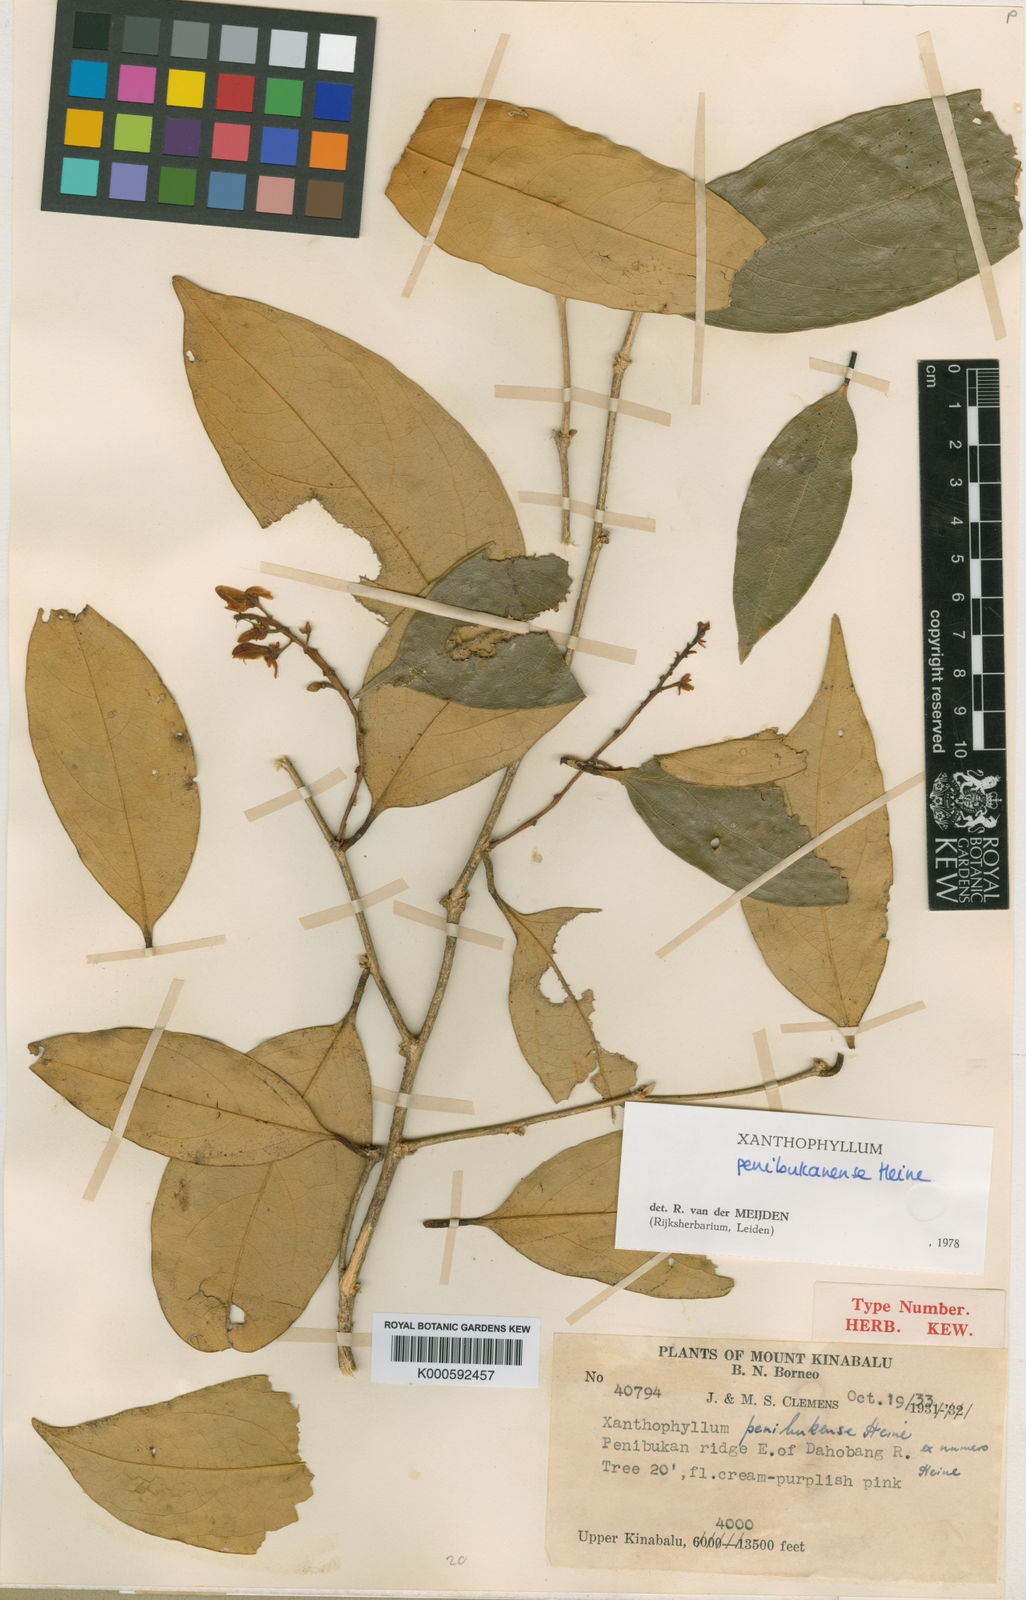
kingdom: Plantae
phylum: Tracheophyta
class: Magnoliopsida
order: Fabales
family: Polygalaceae
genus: Xanthophyllum
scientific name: Xanthophyllum penibukanense
